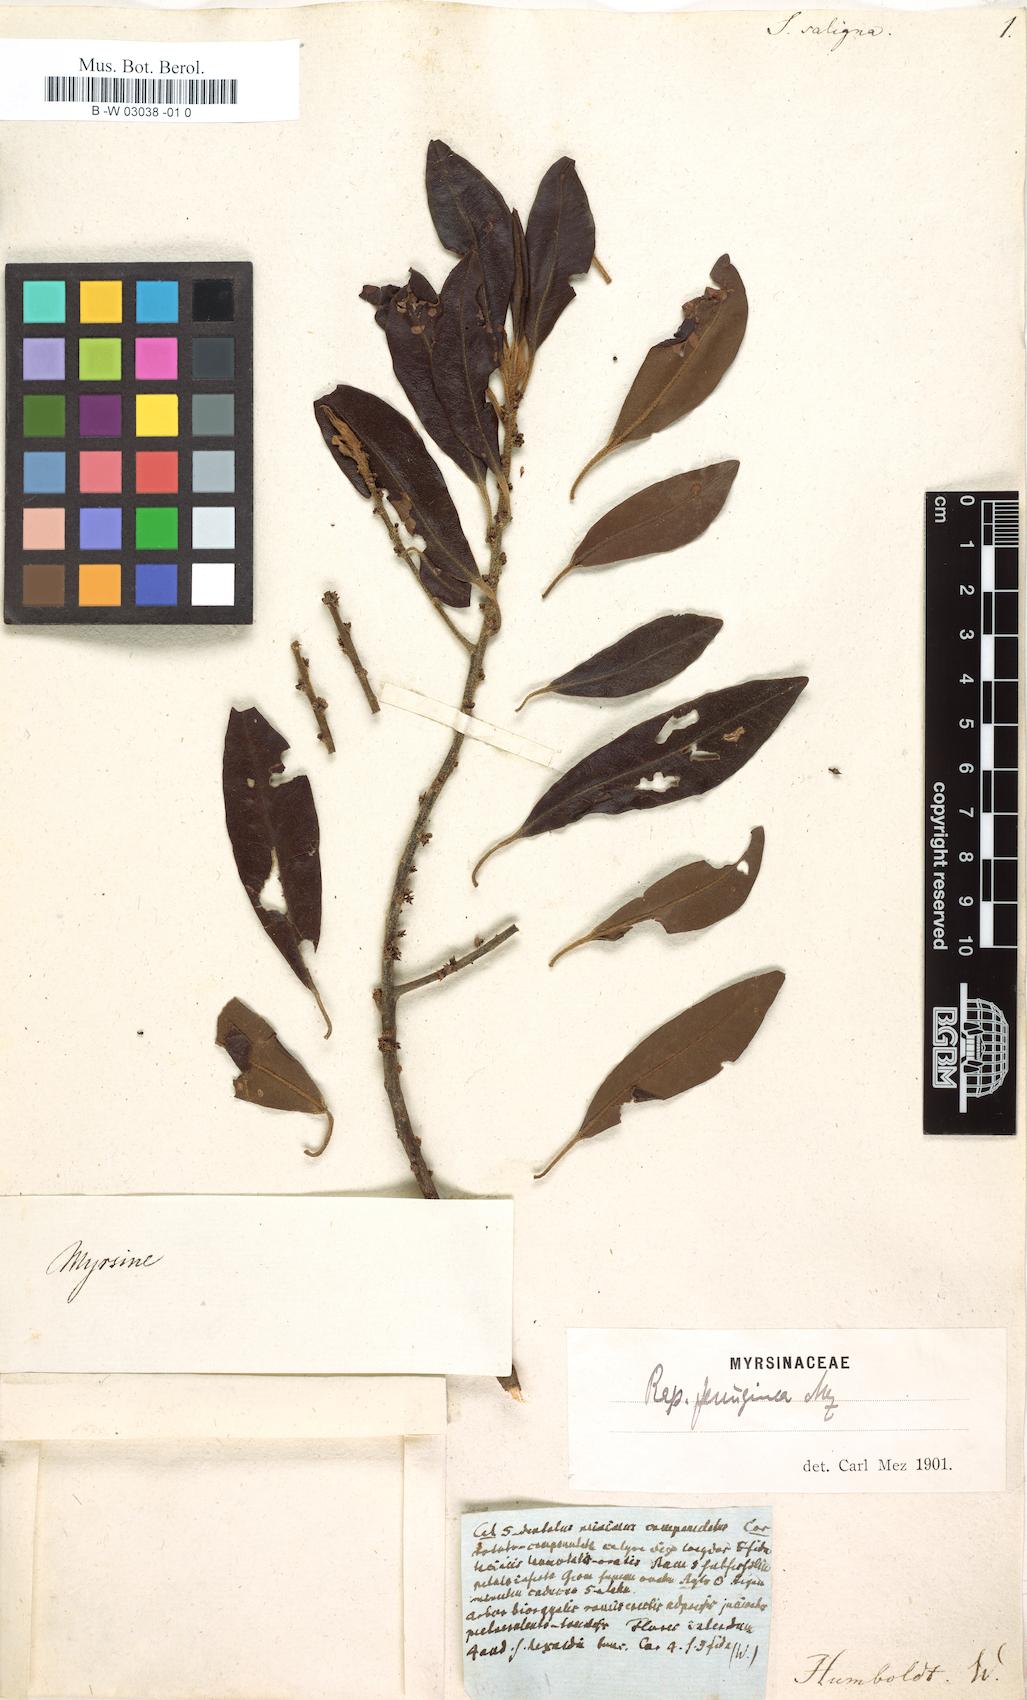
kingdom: Plantae
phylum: Tracheophyta
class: Magnoliopsida
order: Ericales
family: Primulaceae
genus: Myrsine
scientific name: Myrsine coriacea
